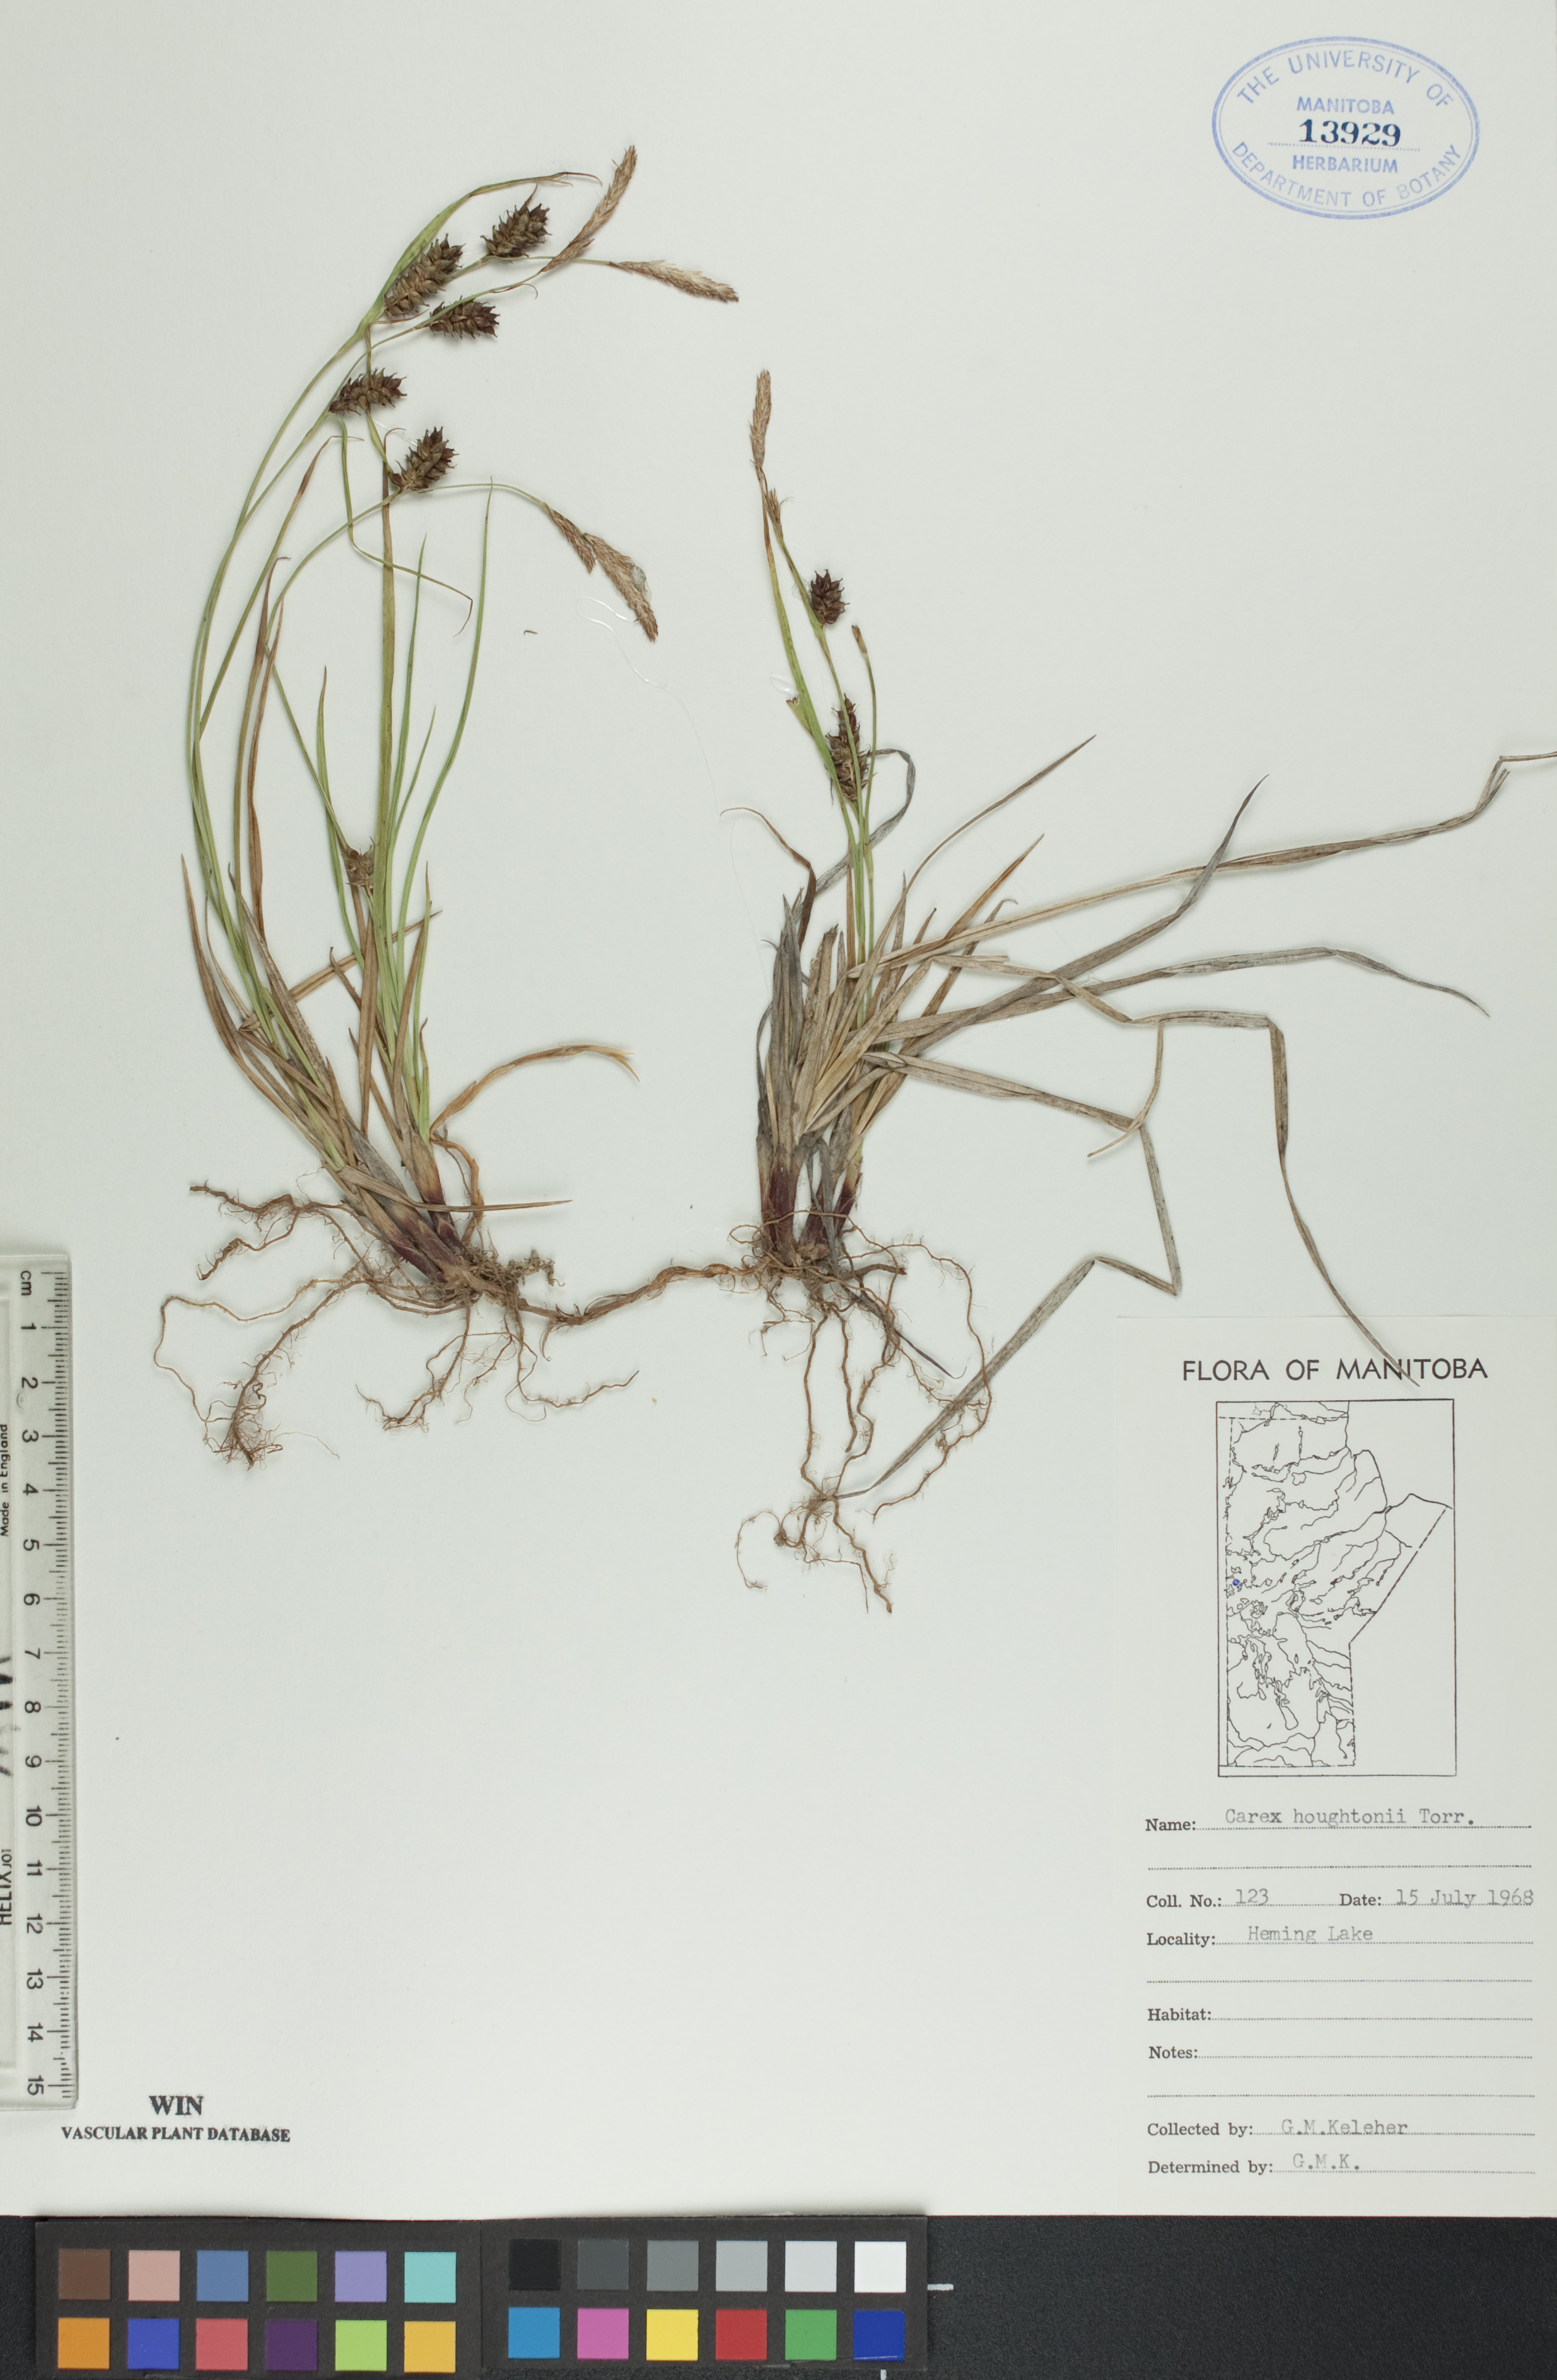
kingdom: Plantae
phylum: Tracheophyta
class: Liliopsida
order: Poales
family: Cyperaceae
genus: Carex
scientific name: Carex houghtoniana
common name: Houghton's sedge
